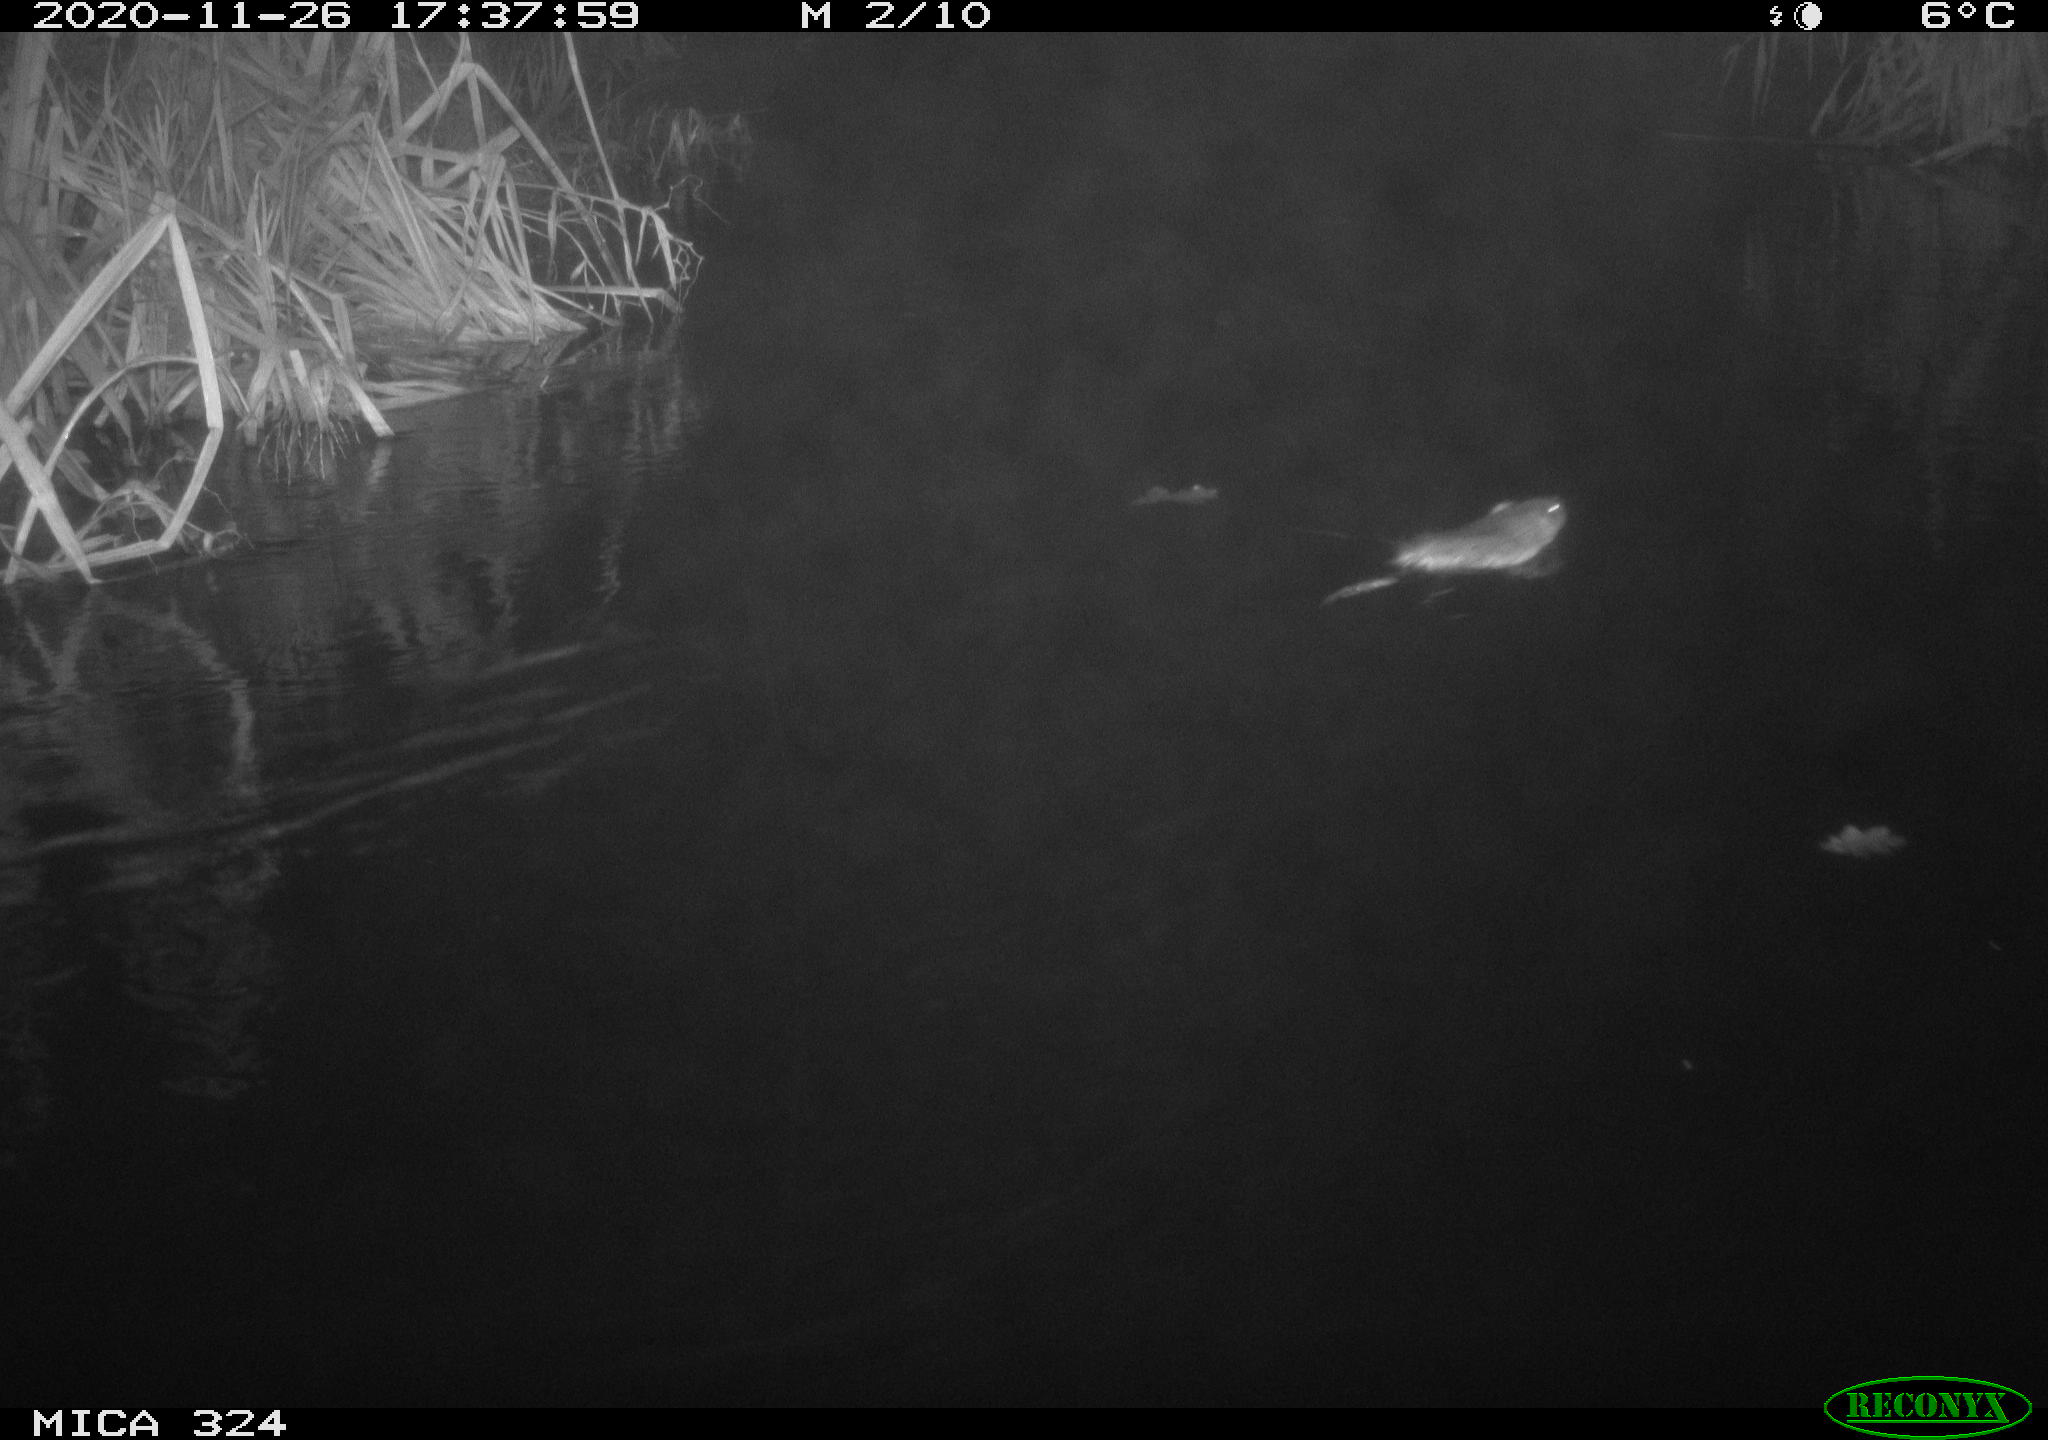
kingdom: Animalia
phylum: Chordata
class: Mammalia
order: Rodentia
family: Cricetidae
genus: Ondatra
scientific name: Ondatra zibethicus
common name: Muskrat
